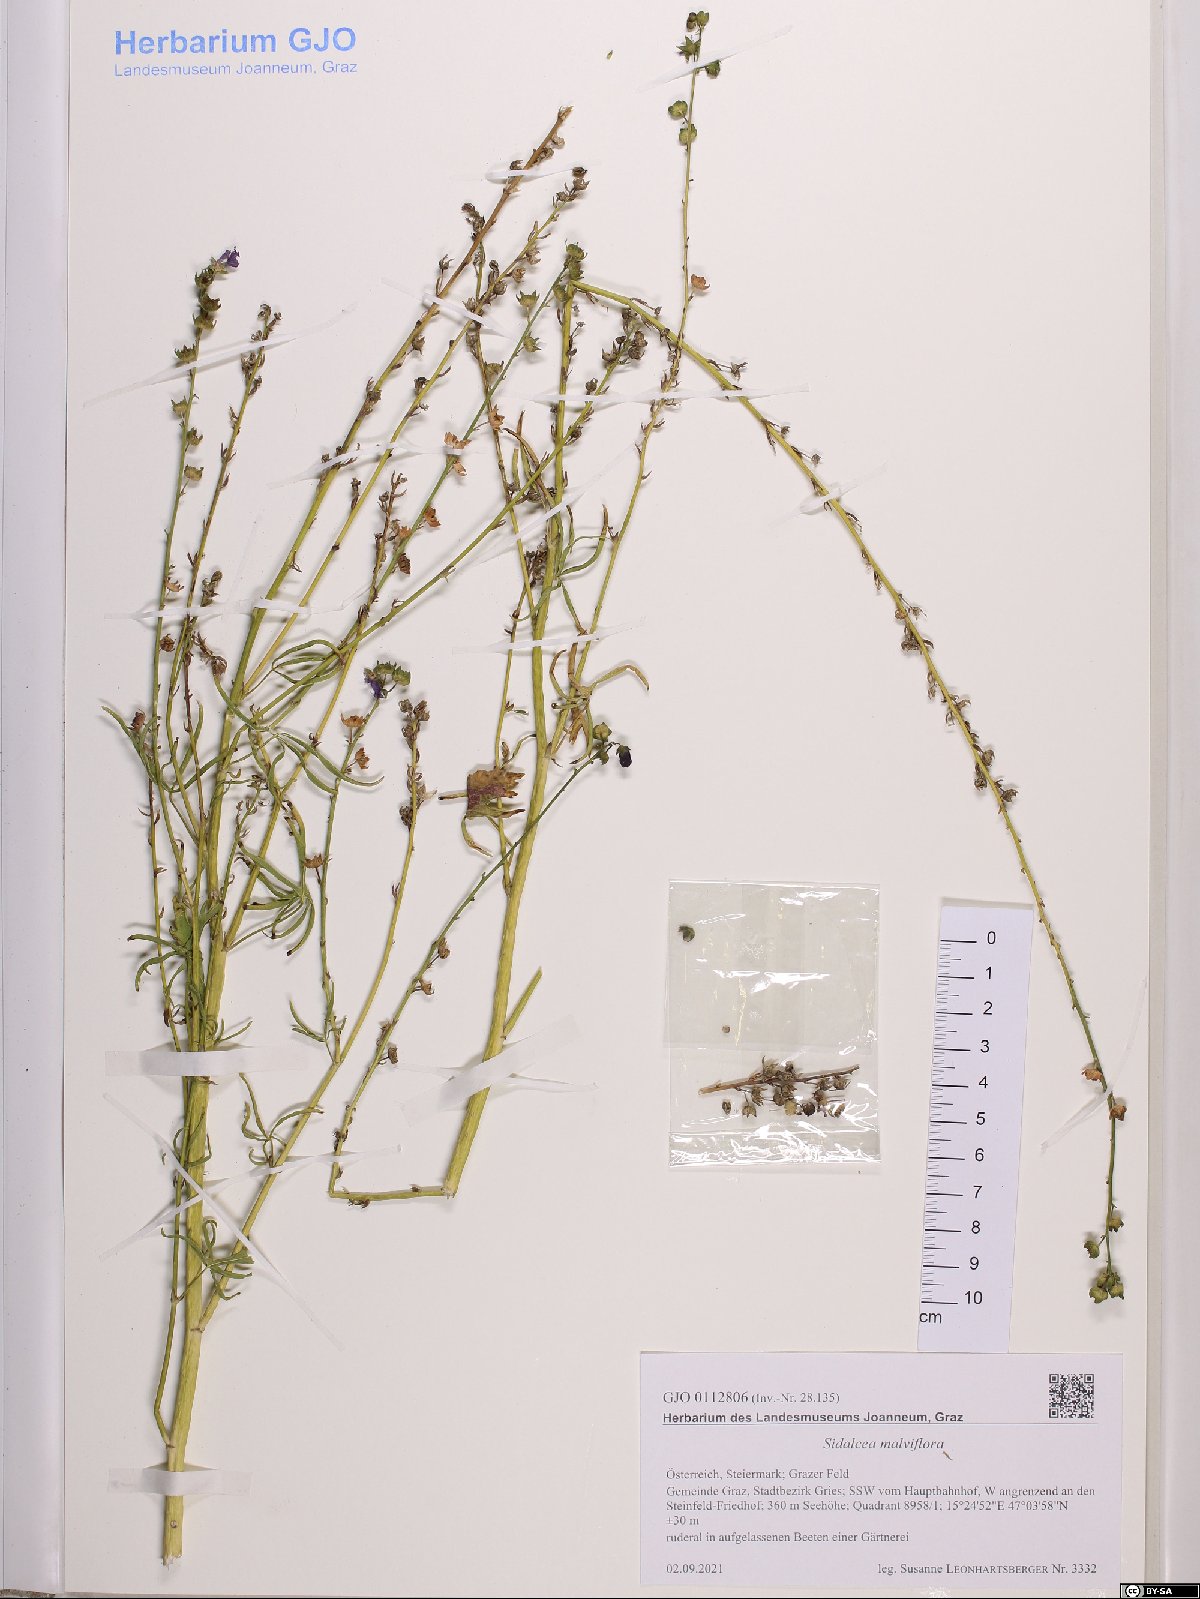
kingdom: Plantae
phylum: Tracheophyta
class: Magnoliopsida
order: Malvales
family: Malvaceae
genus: Sidalcea
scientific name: Sidalcea malviflora
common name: Greek mallow
